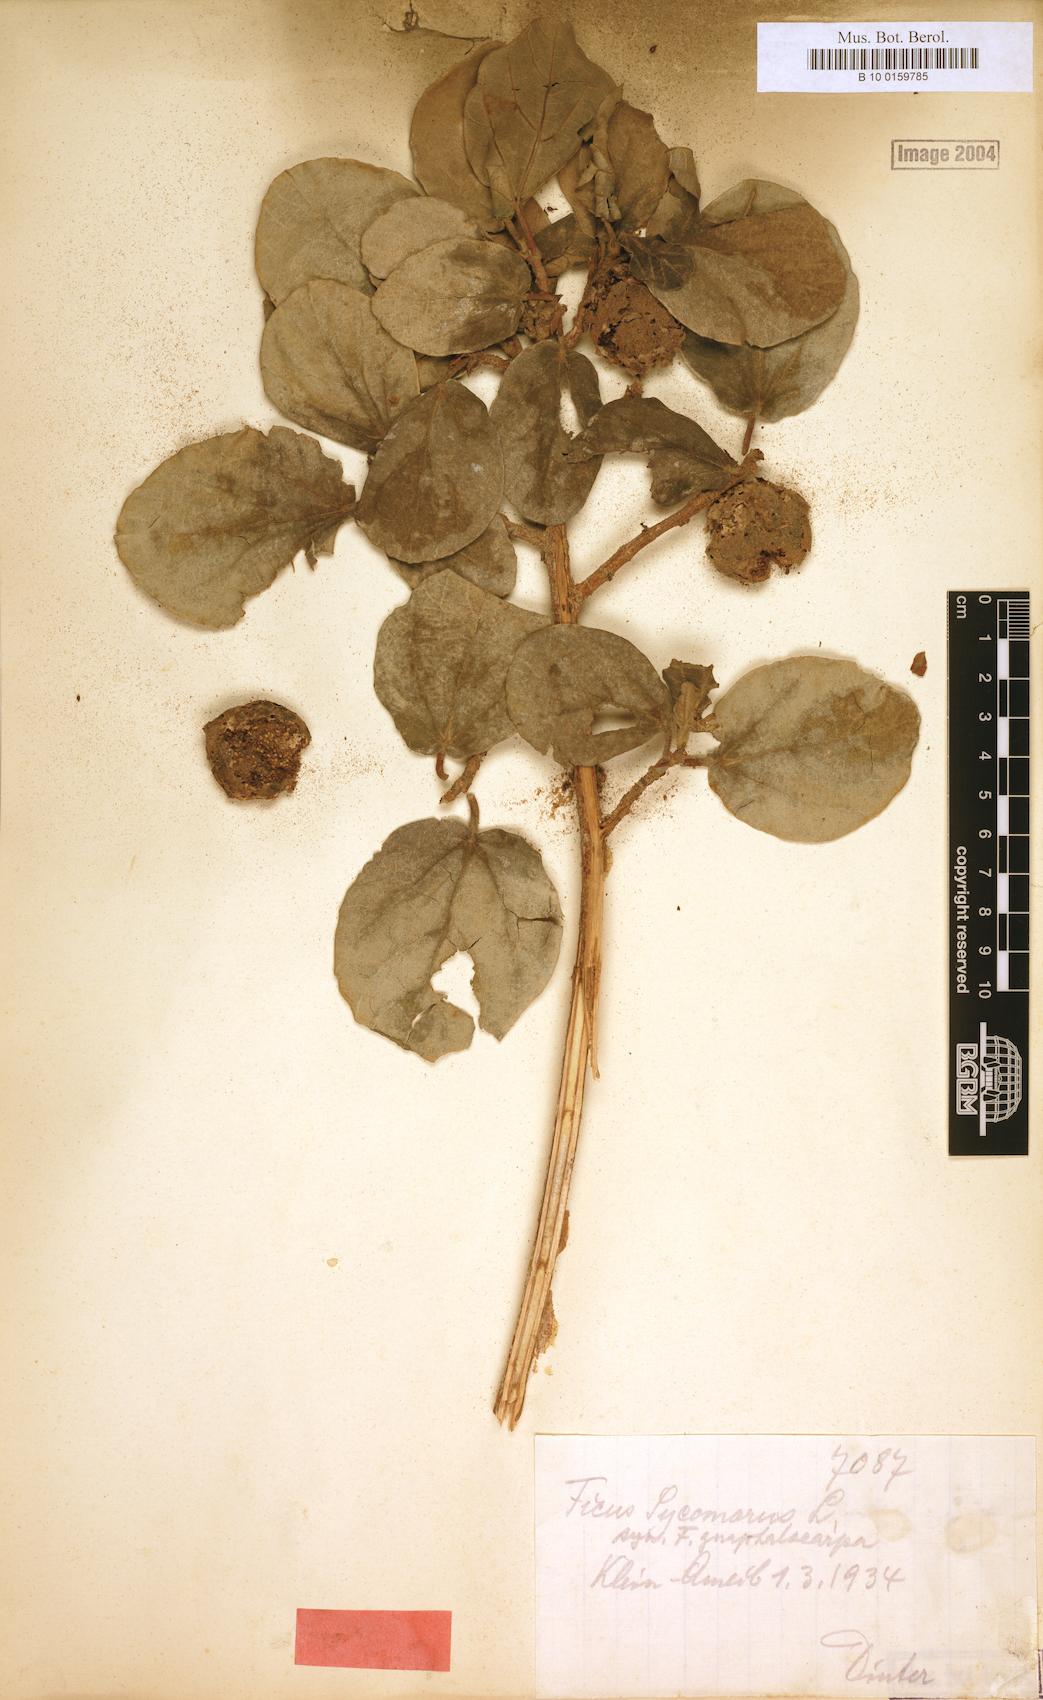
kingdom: Plantae
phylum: Tracheophyta
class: Magnoliopsida
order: Rosales
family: Moraceae
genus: Ficus
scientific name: Ficus sycomorus
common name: Sycomore
